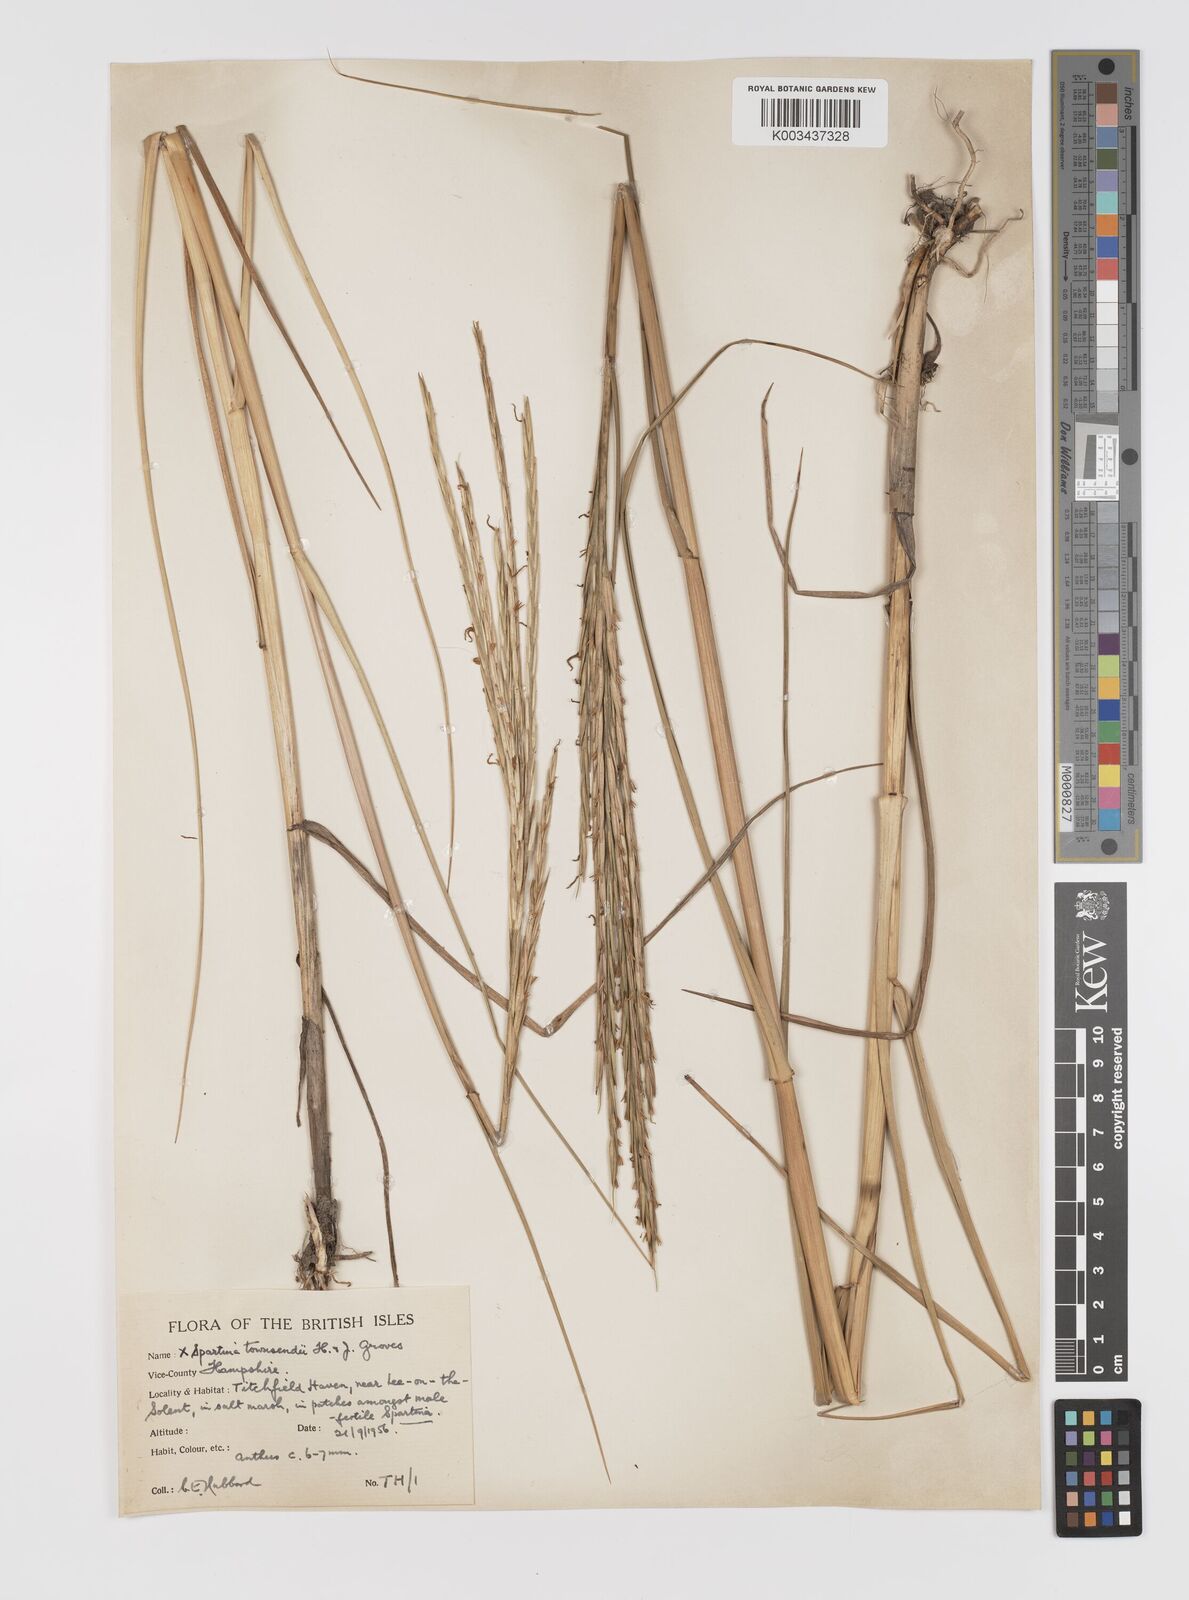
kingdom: Plantae
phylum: Tracheophyta
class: Liliopsida
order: Poales
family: Poaceae
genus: Sporobolus
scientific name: Sporobolus townsendii
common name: Townsend's cordgrass
